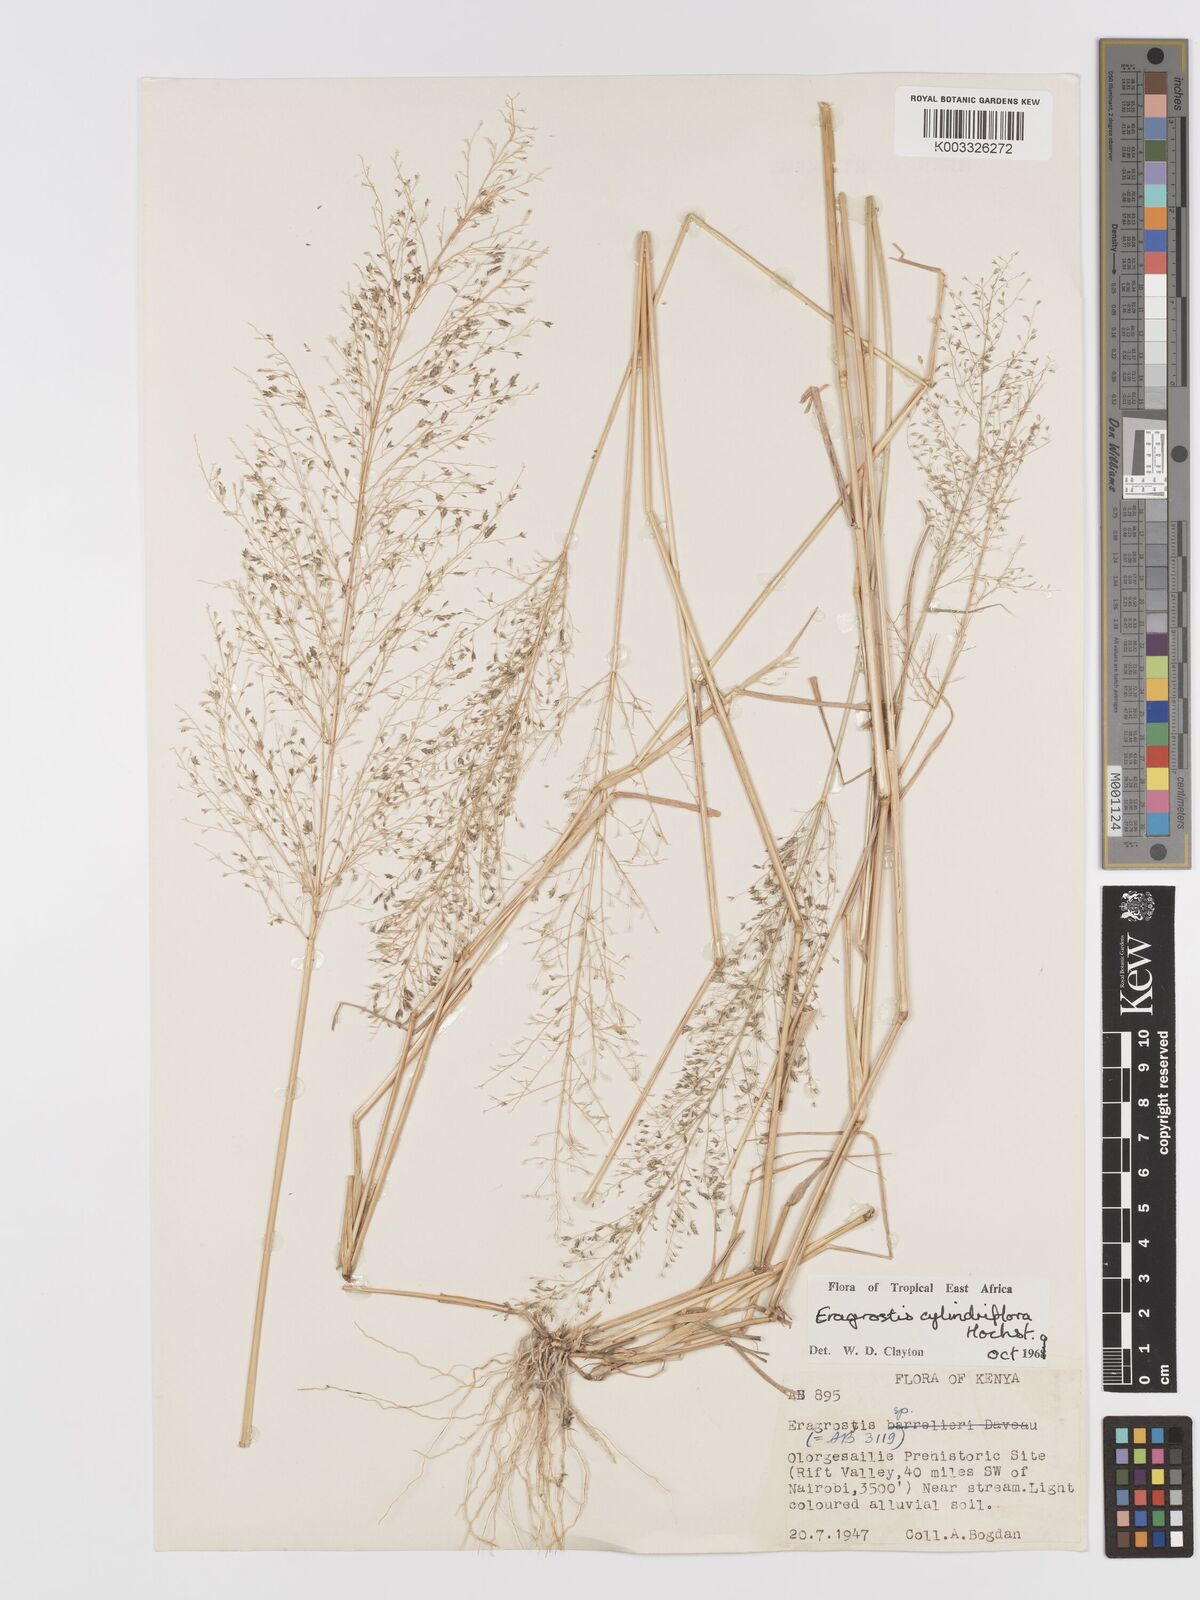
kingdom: Plantae
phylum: Tracheophyta
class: Liliopsida
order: Poales
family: Poaceae
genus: Eragrostis
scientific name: Eragrostis cylindriflora
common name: Cylinderflower lovegrass
